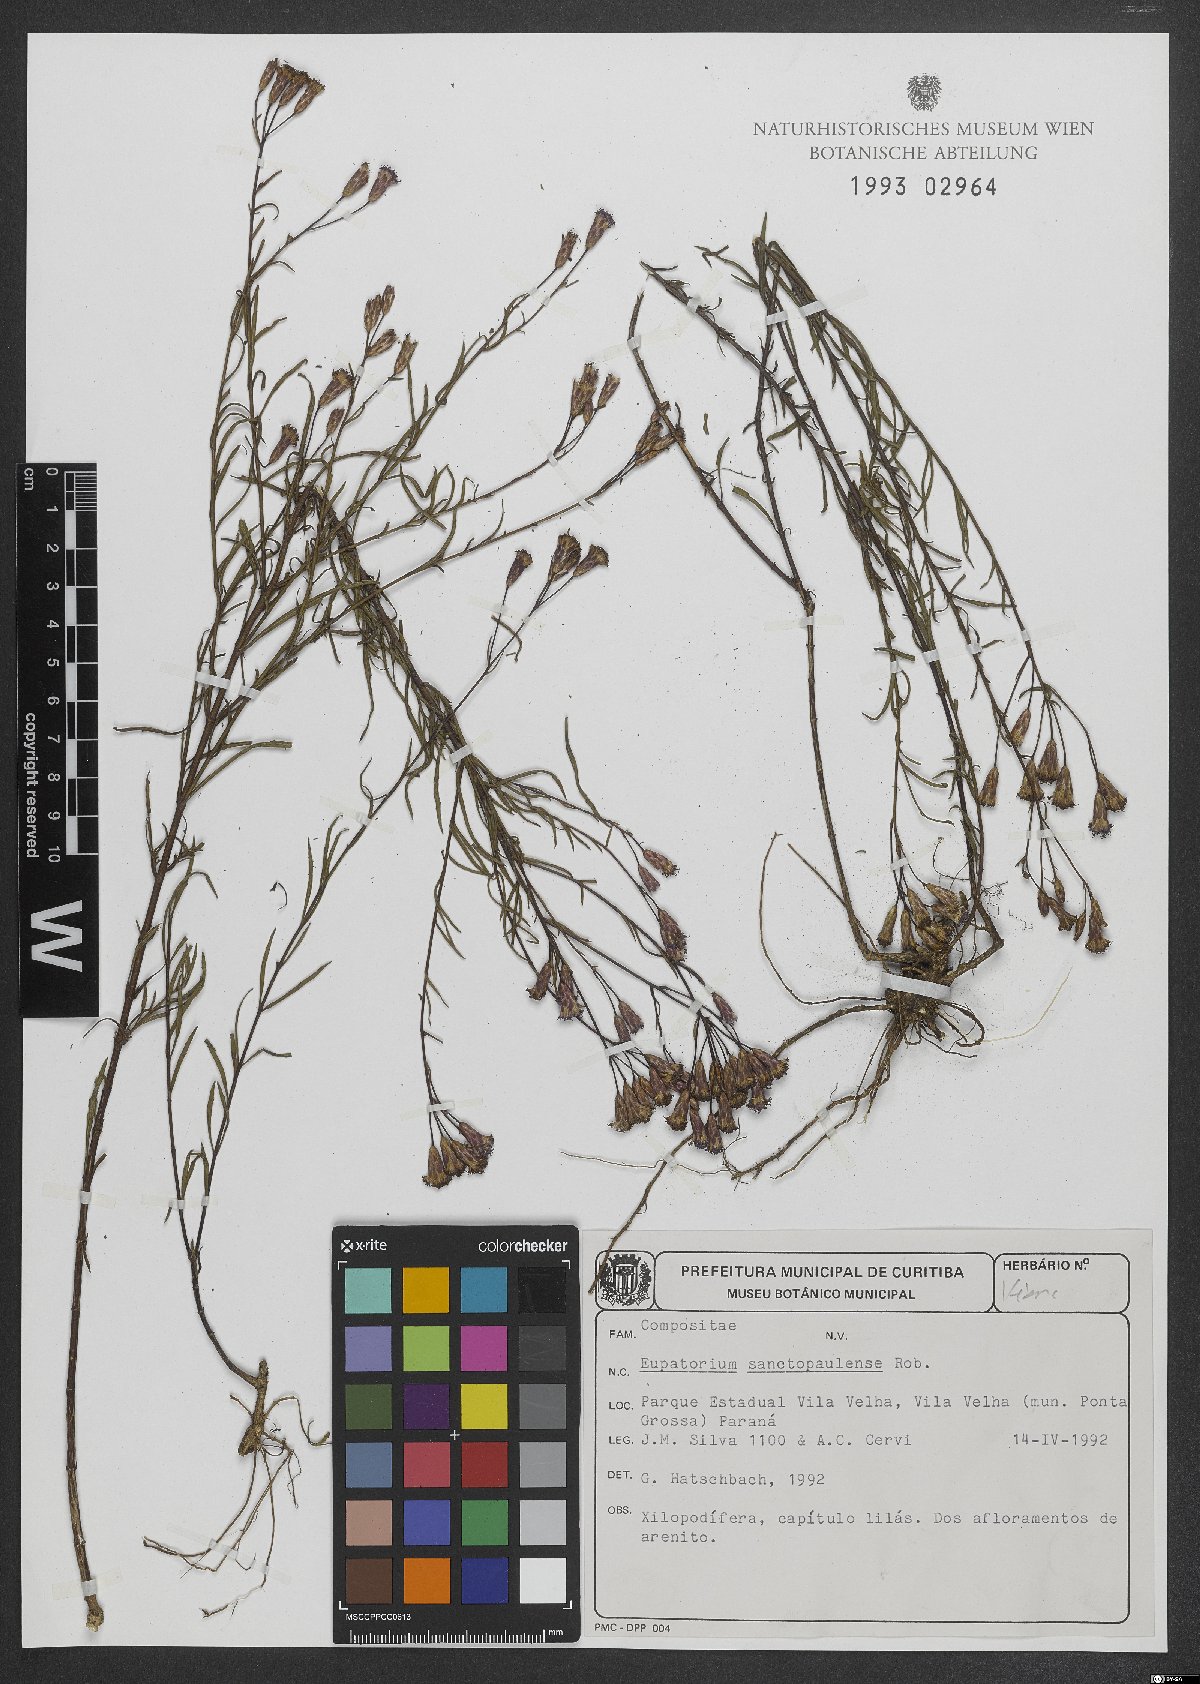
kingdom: Plantae
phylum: Tracheophyta
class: Magnoliopsida
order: Asterales
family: Asteraceae
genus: Praxelis
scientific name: Praxelis sanctopaulensis
